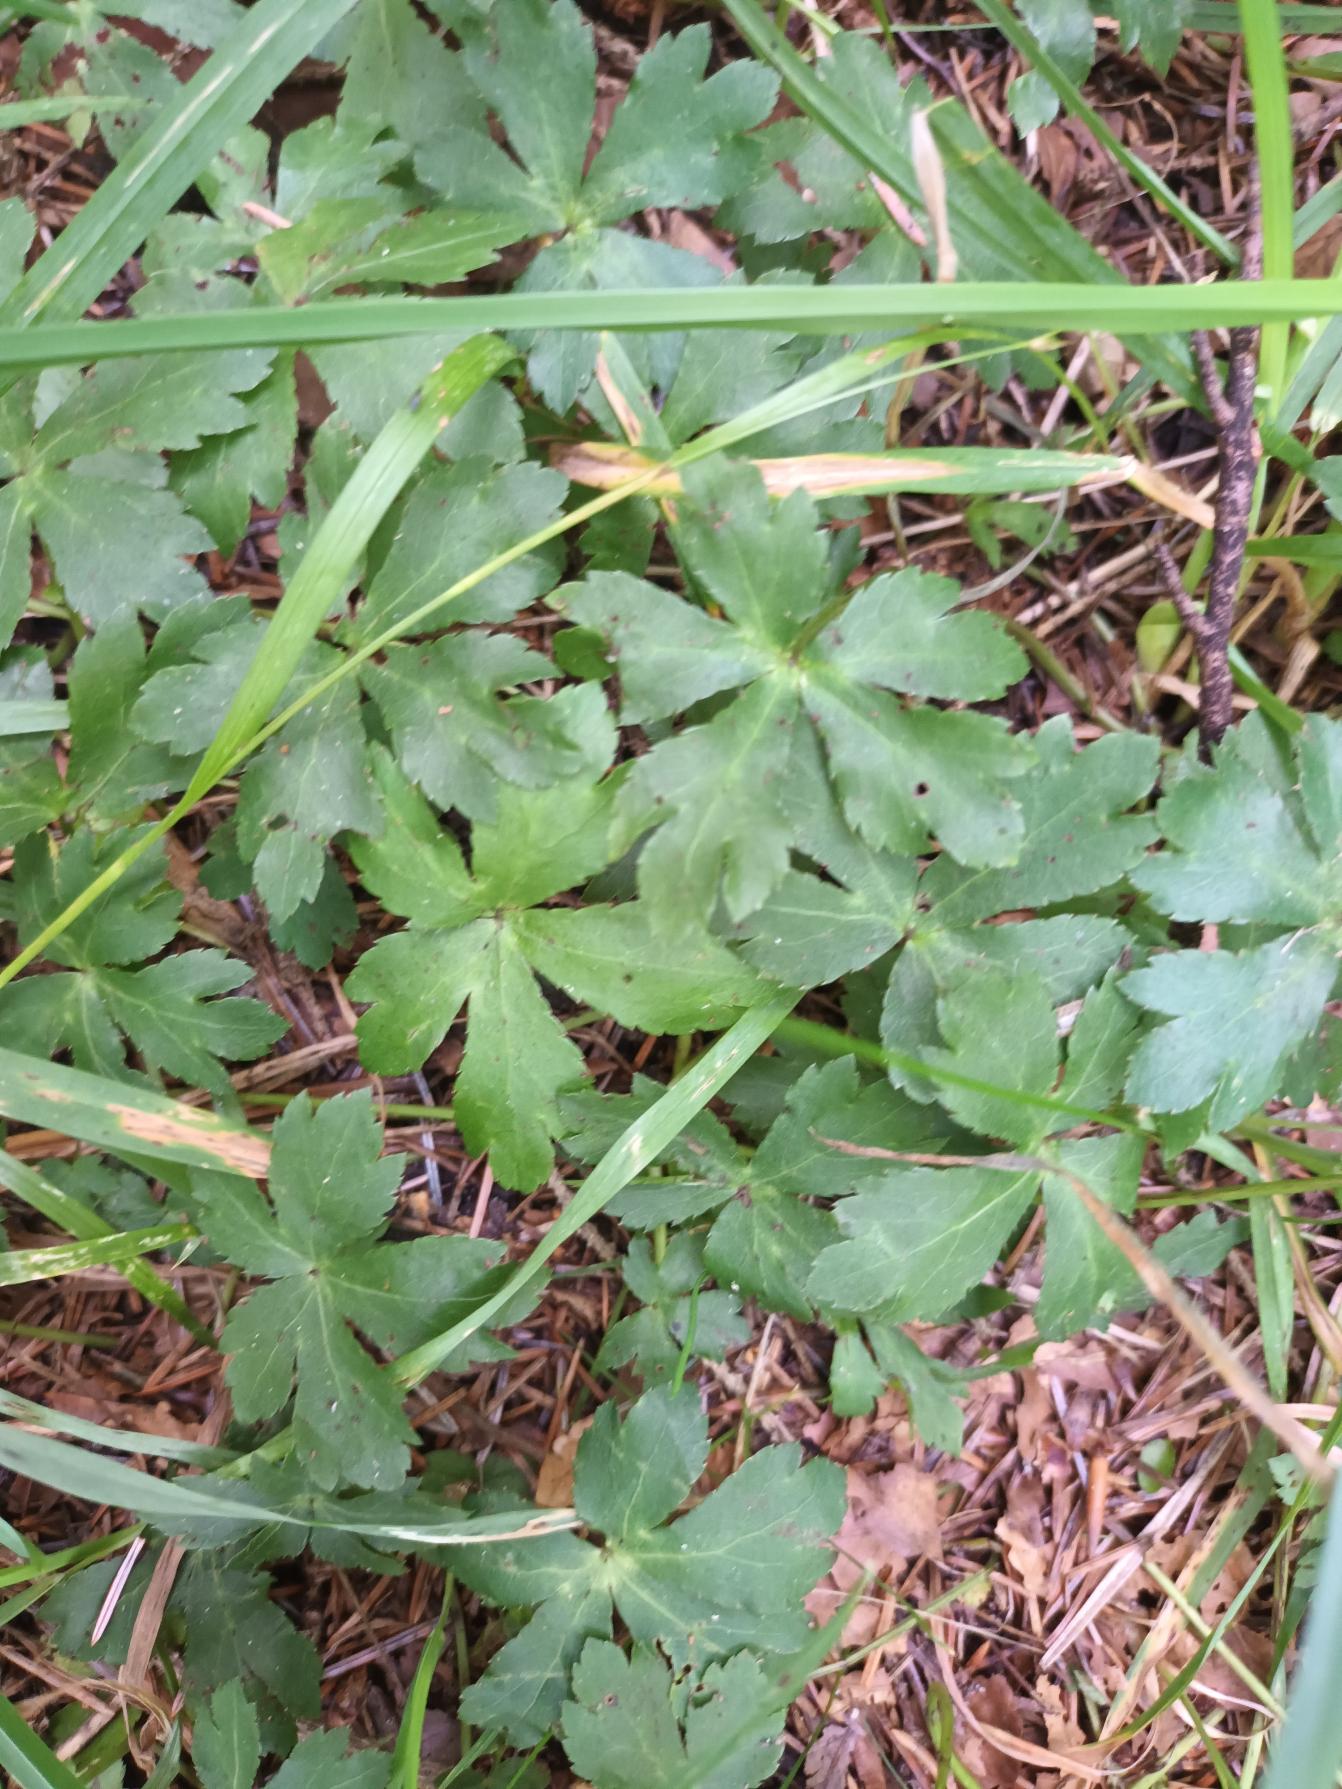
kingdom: Plantae
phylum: Tracheophyta
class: Magnoliopsida
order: Apiales
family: Apiaceae
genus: Sanicula
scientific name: Sanicula europaea
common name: Sanikel
